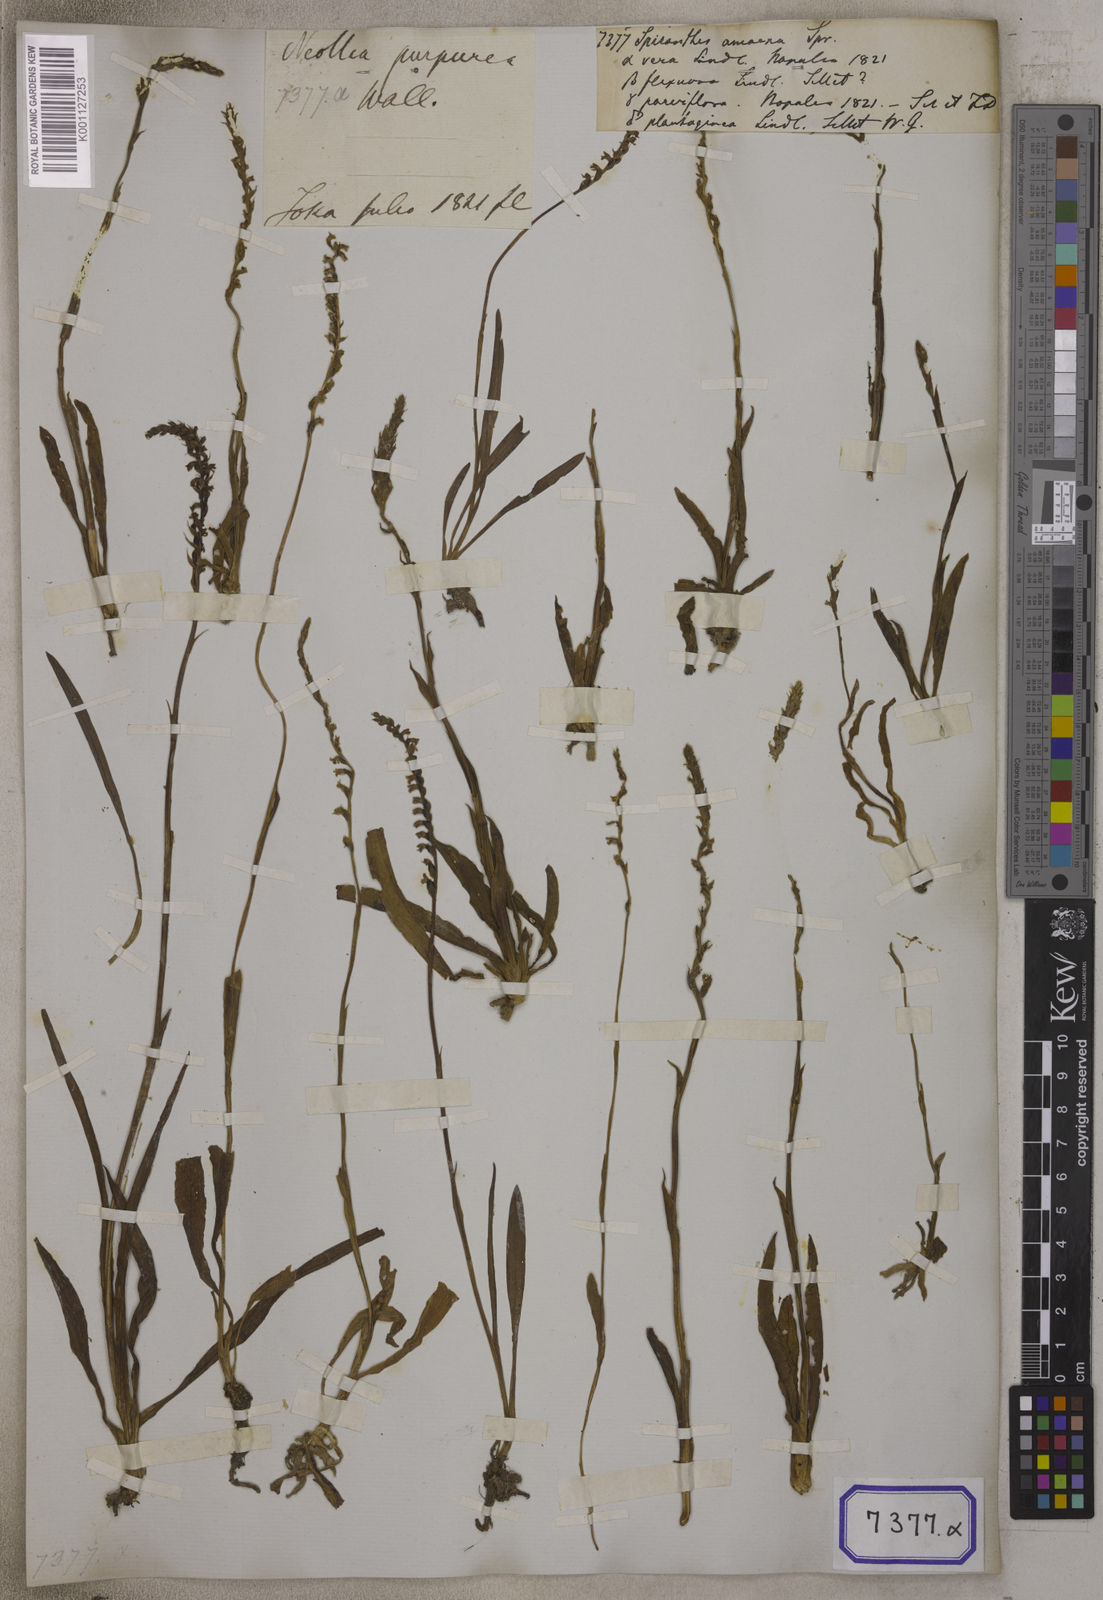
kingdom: Plantae
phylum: Tracheophyta
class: Liliopsida
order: Asparagales
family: Orchidaceae
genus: Spiranthes
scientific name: Spiranthes
